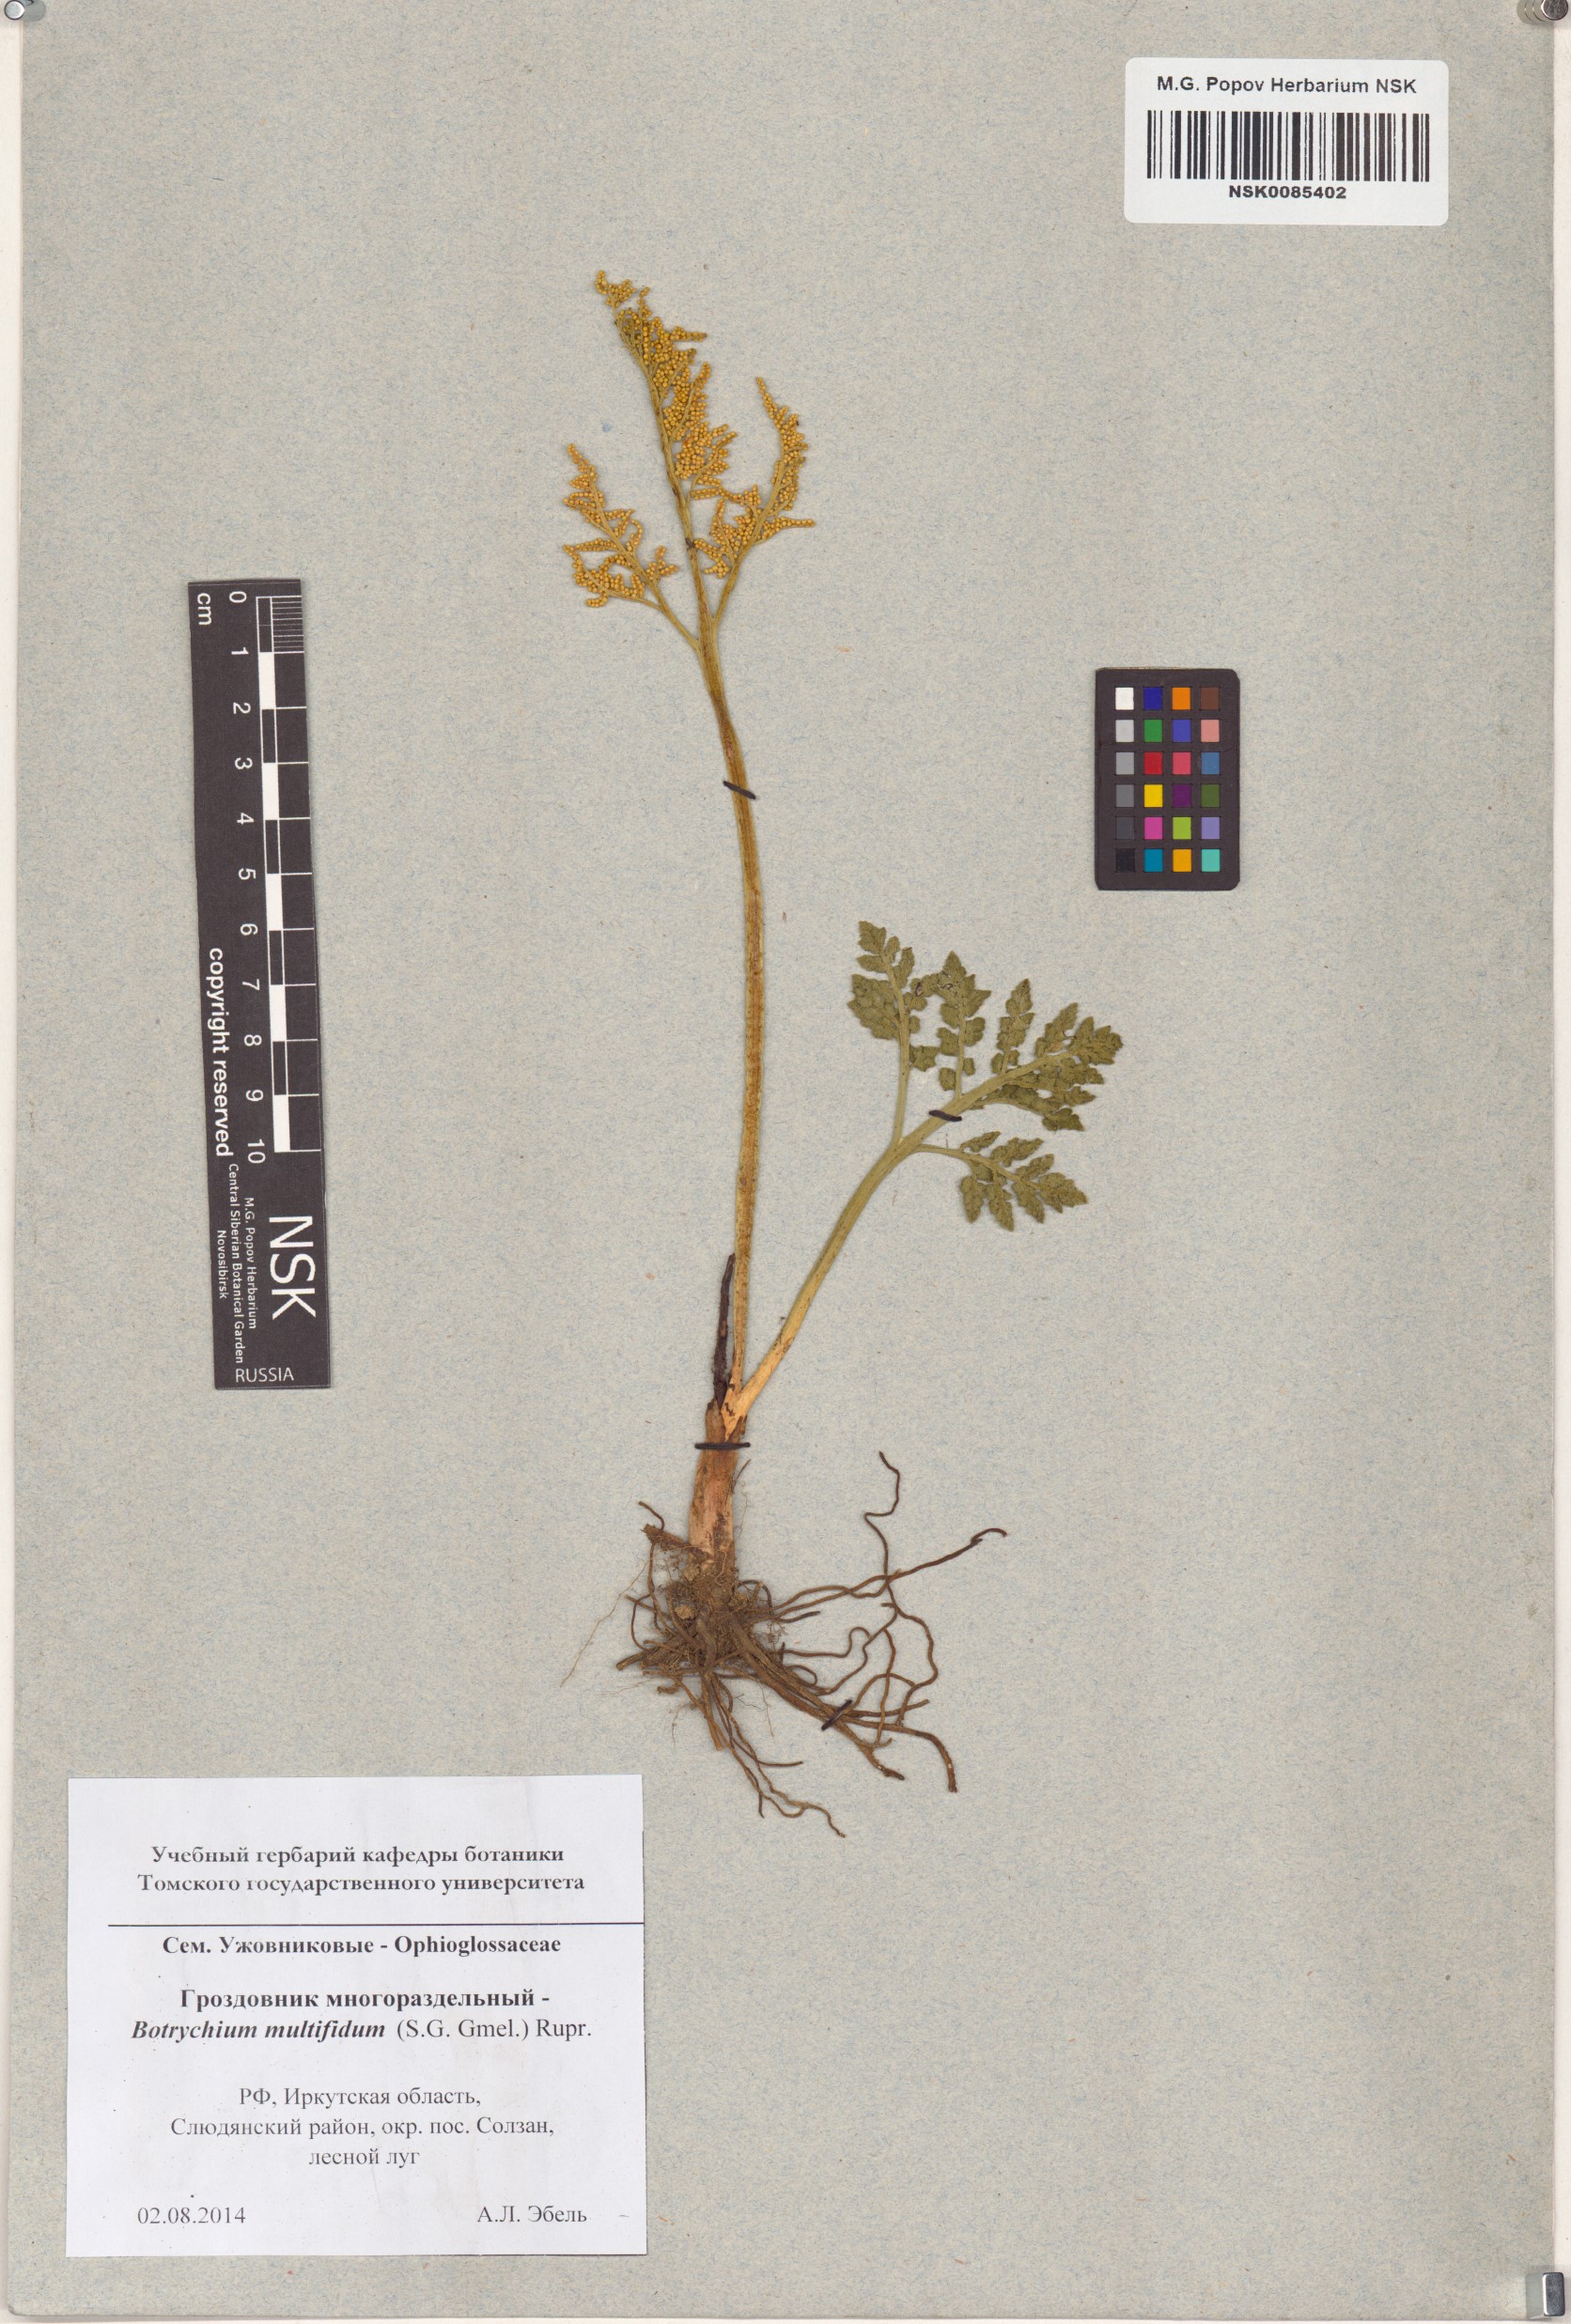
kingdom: Plantae
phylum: Tracheophyta
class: Polypodiopsida
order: Ophioglossales
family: Ophioglossaceae
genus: Sceptridium
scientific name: Sceptridium multifidum
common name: Leathery grape fern
